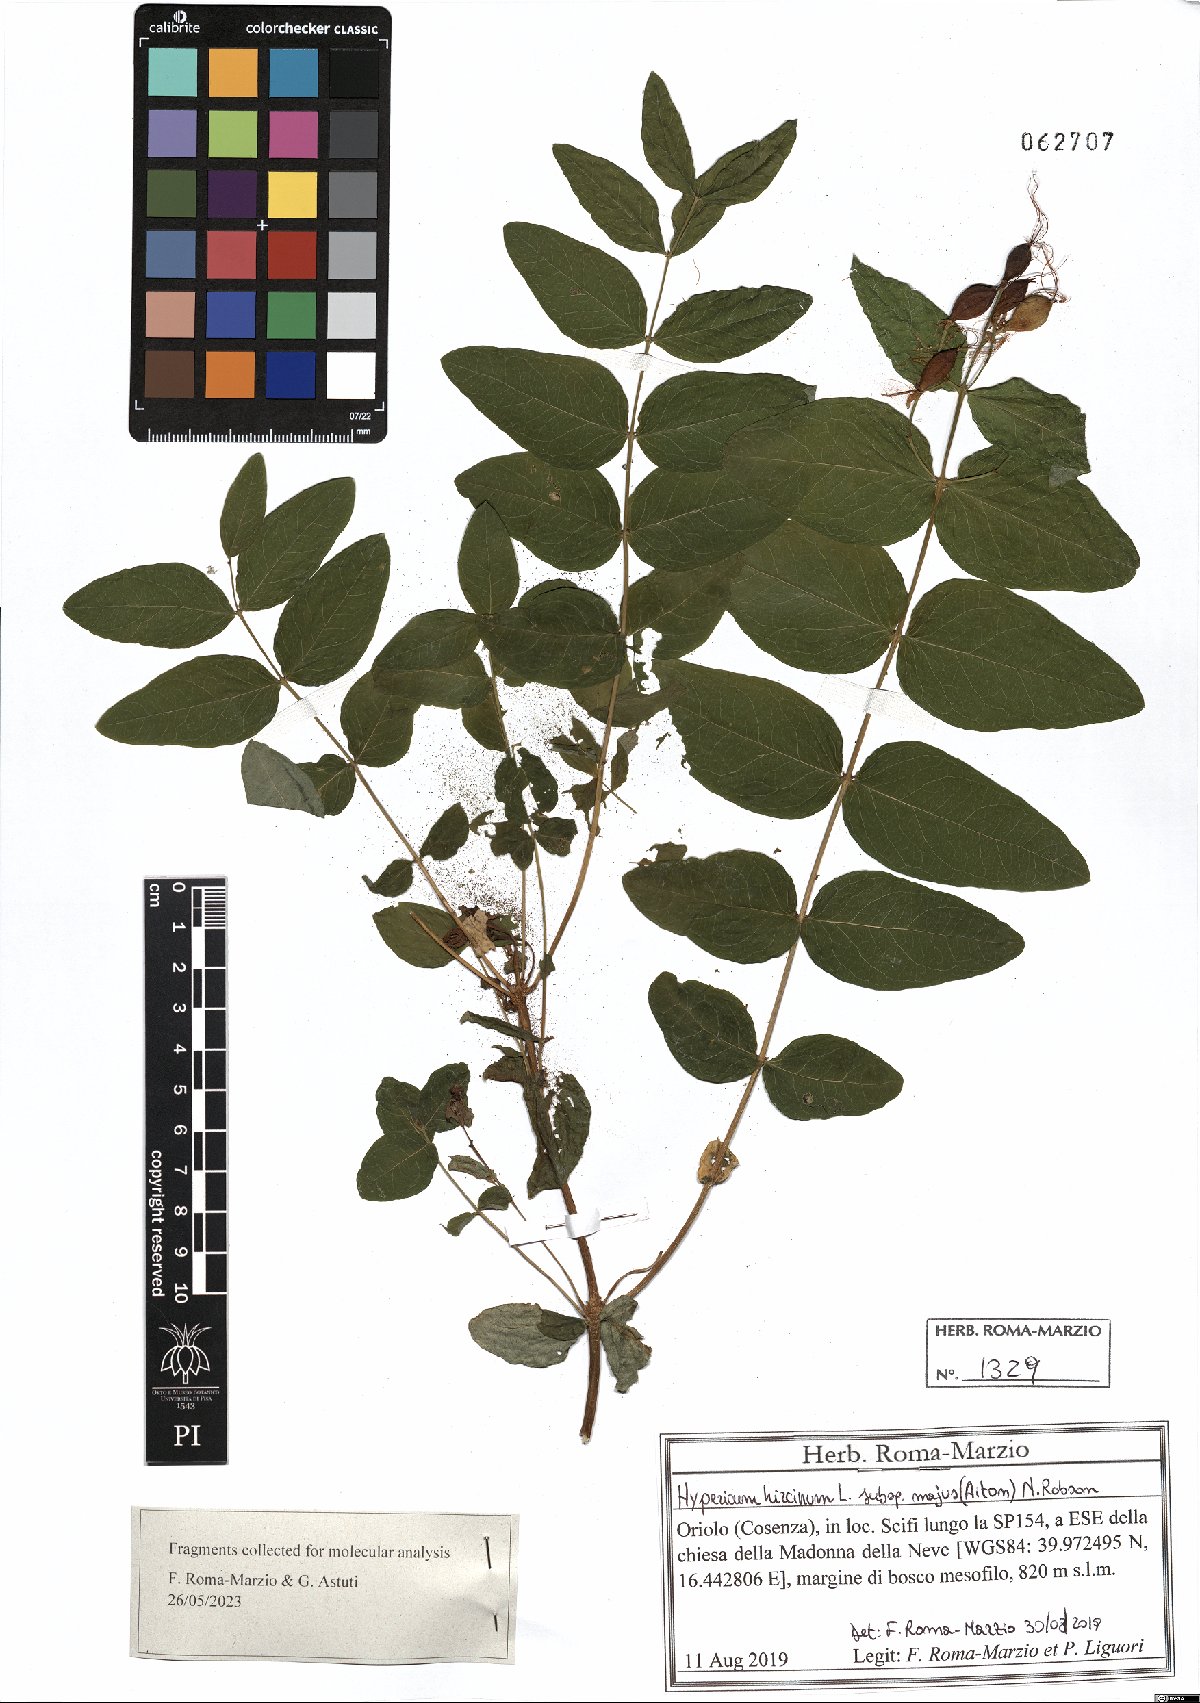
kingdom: Plantae
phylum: Tracheophyta
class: Magnoliopsida
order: Malpighiales
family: Hypericaceae
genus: Hypericum
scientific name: Hypericum hircinum
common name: Stinking tutsan
